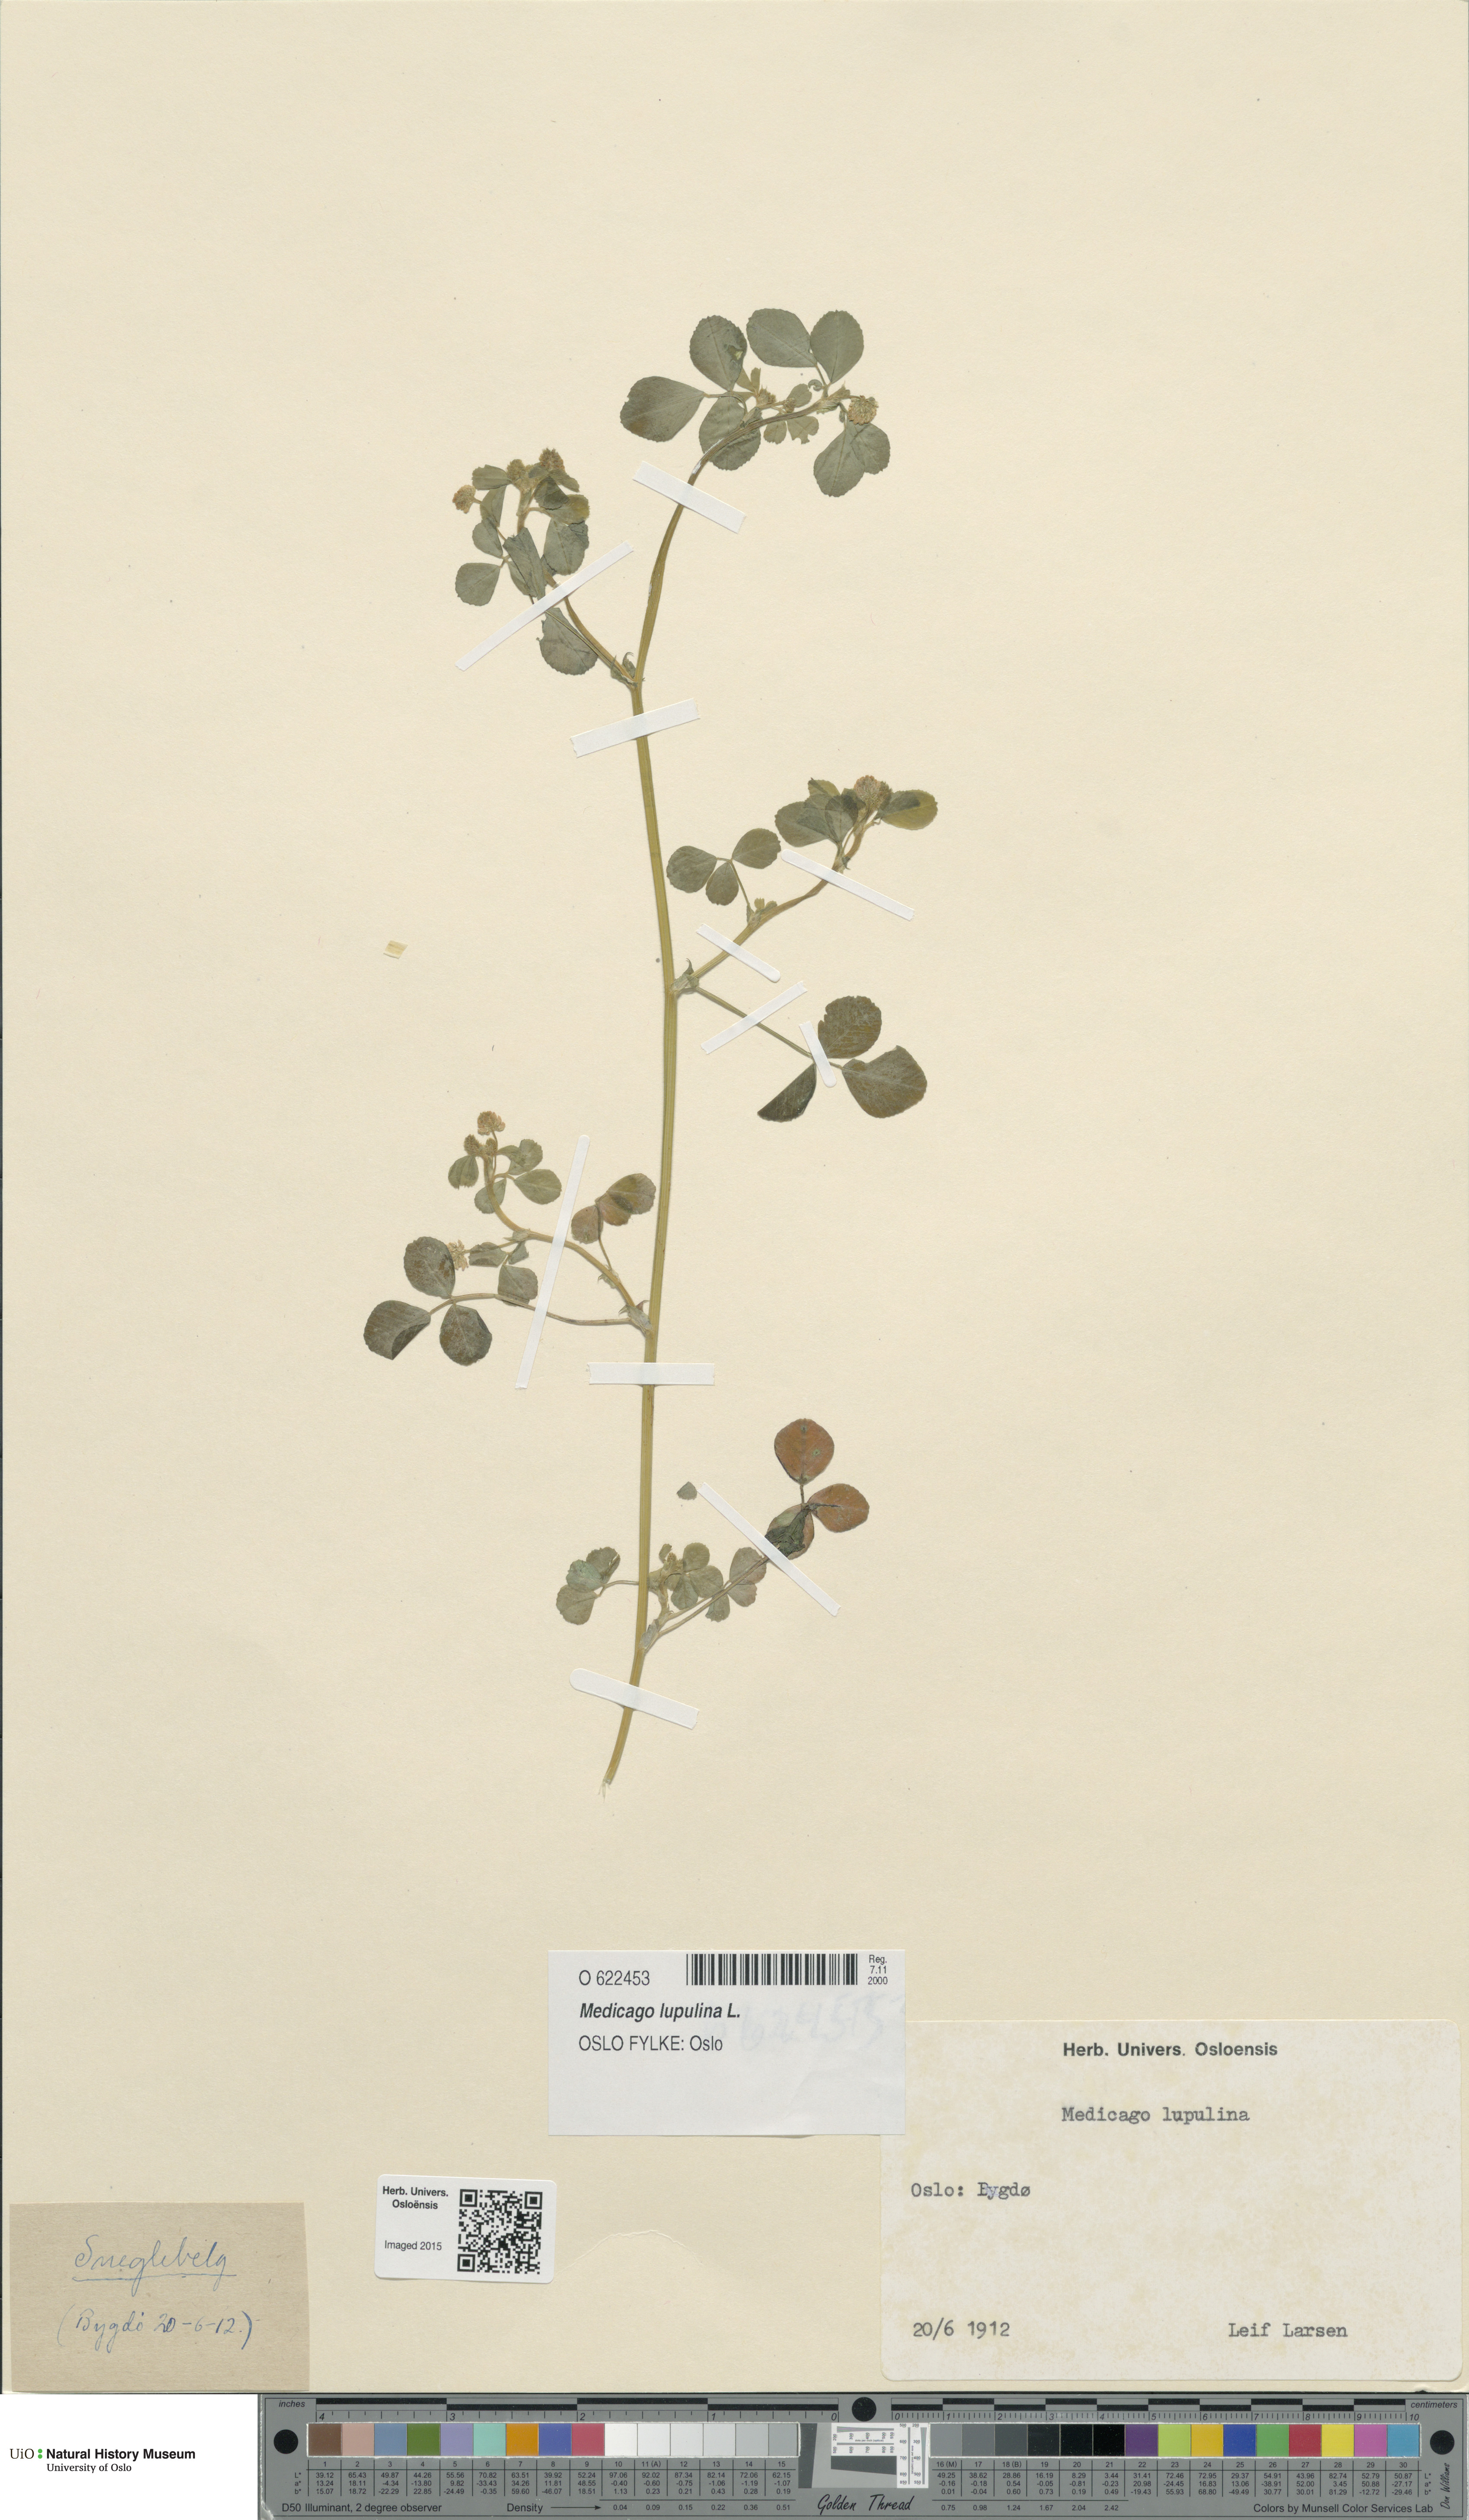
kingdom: Plantae
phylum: Tracheophyta
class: Magnoliopsida
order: Fabales
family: Fabaceae
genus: Medicago
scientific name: Medicago lupulina
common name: Black medick
